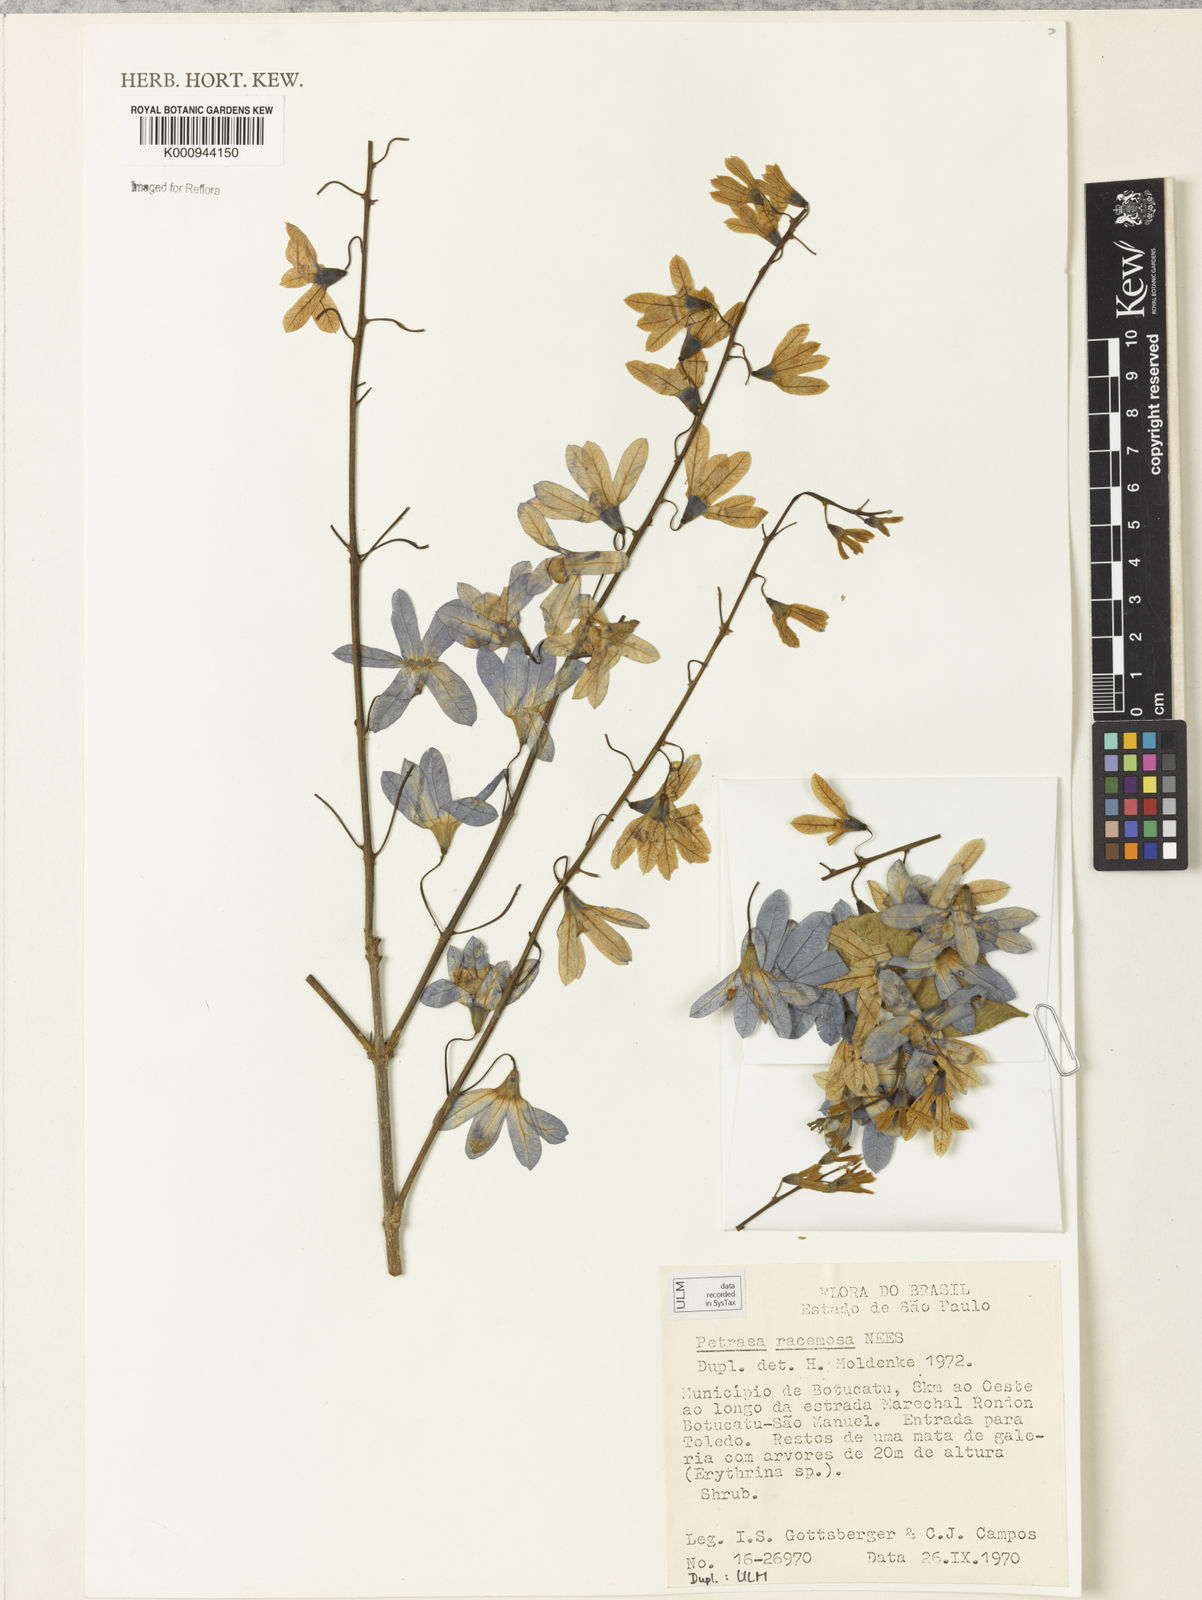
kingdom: Plantae
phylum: Tracheophyta
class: Magnoliopsida
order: Lamiales
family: Verbenaceae
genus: Petrea
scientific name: Petrea volubilis
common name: Queen's-wreath
